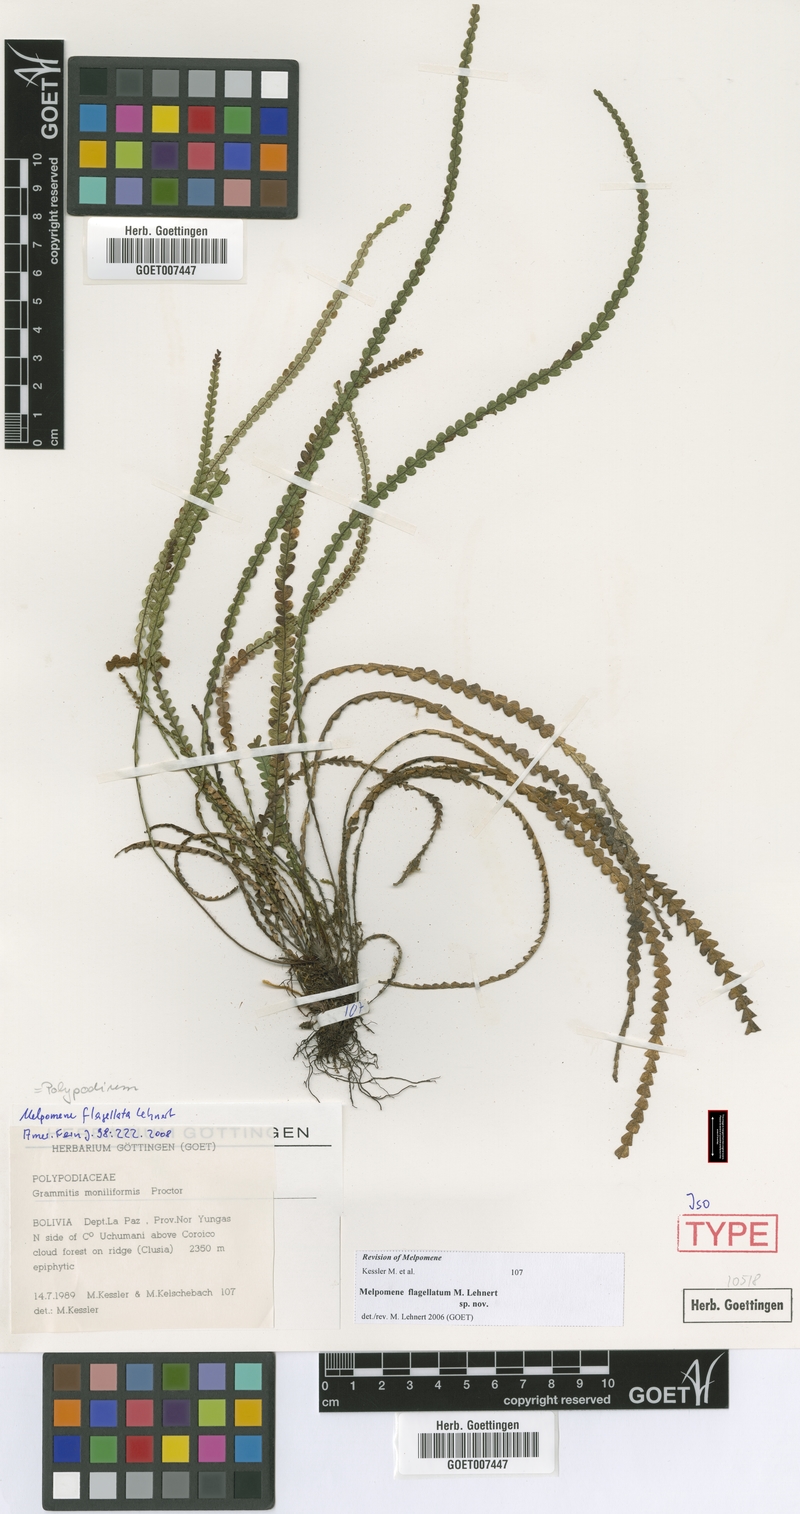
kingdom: Plantae
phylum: Tracheophyta
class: Polypodiopsida
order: Polypodiales
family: Polypodiaceae
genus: Melpomene
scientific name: Melpomene flagellata
